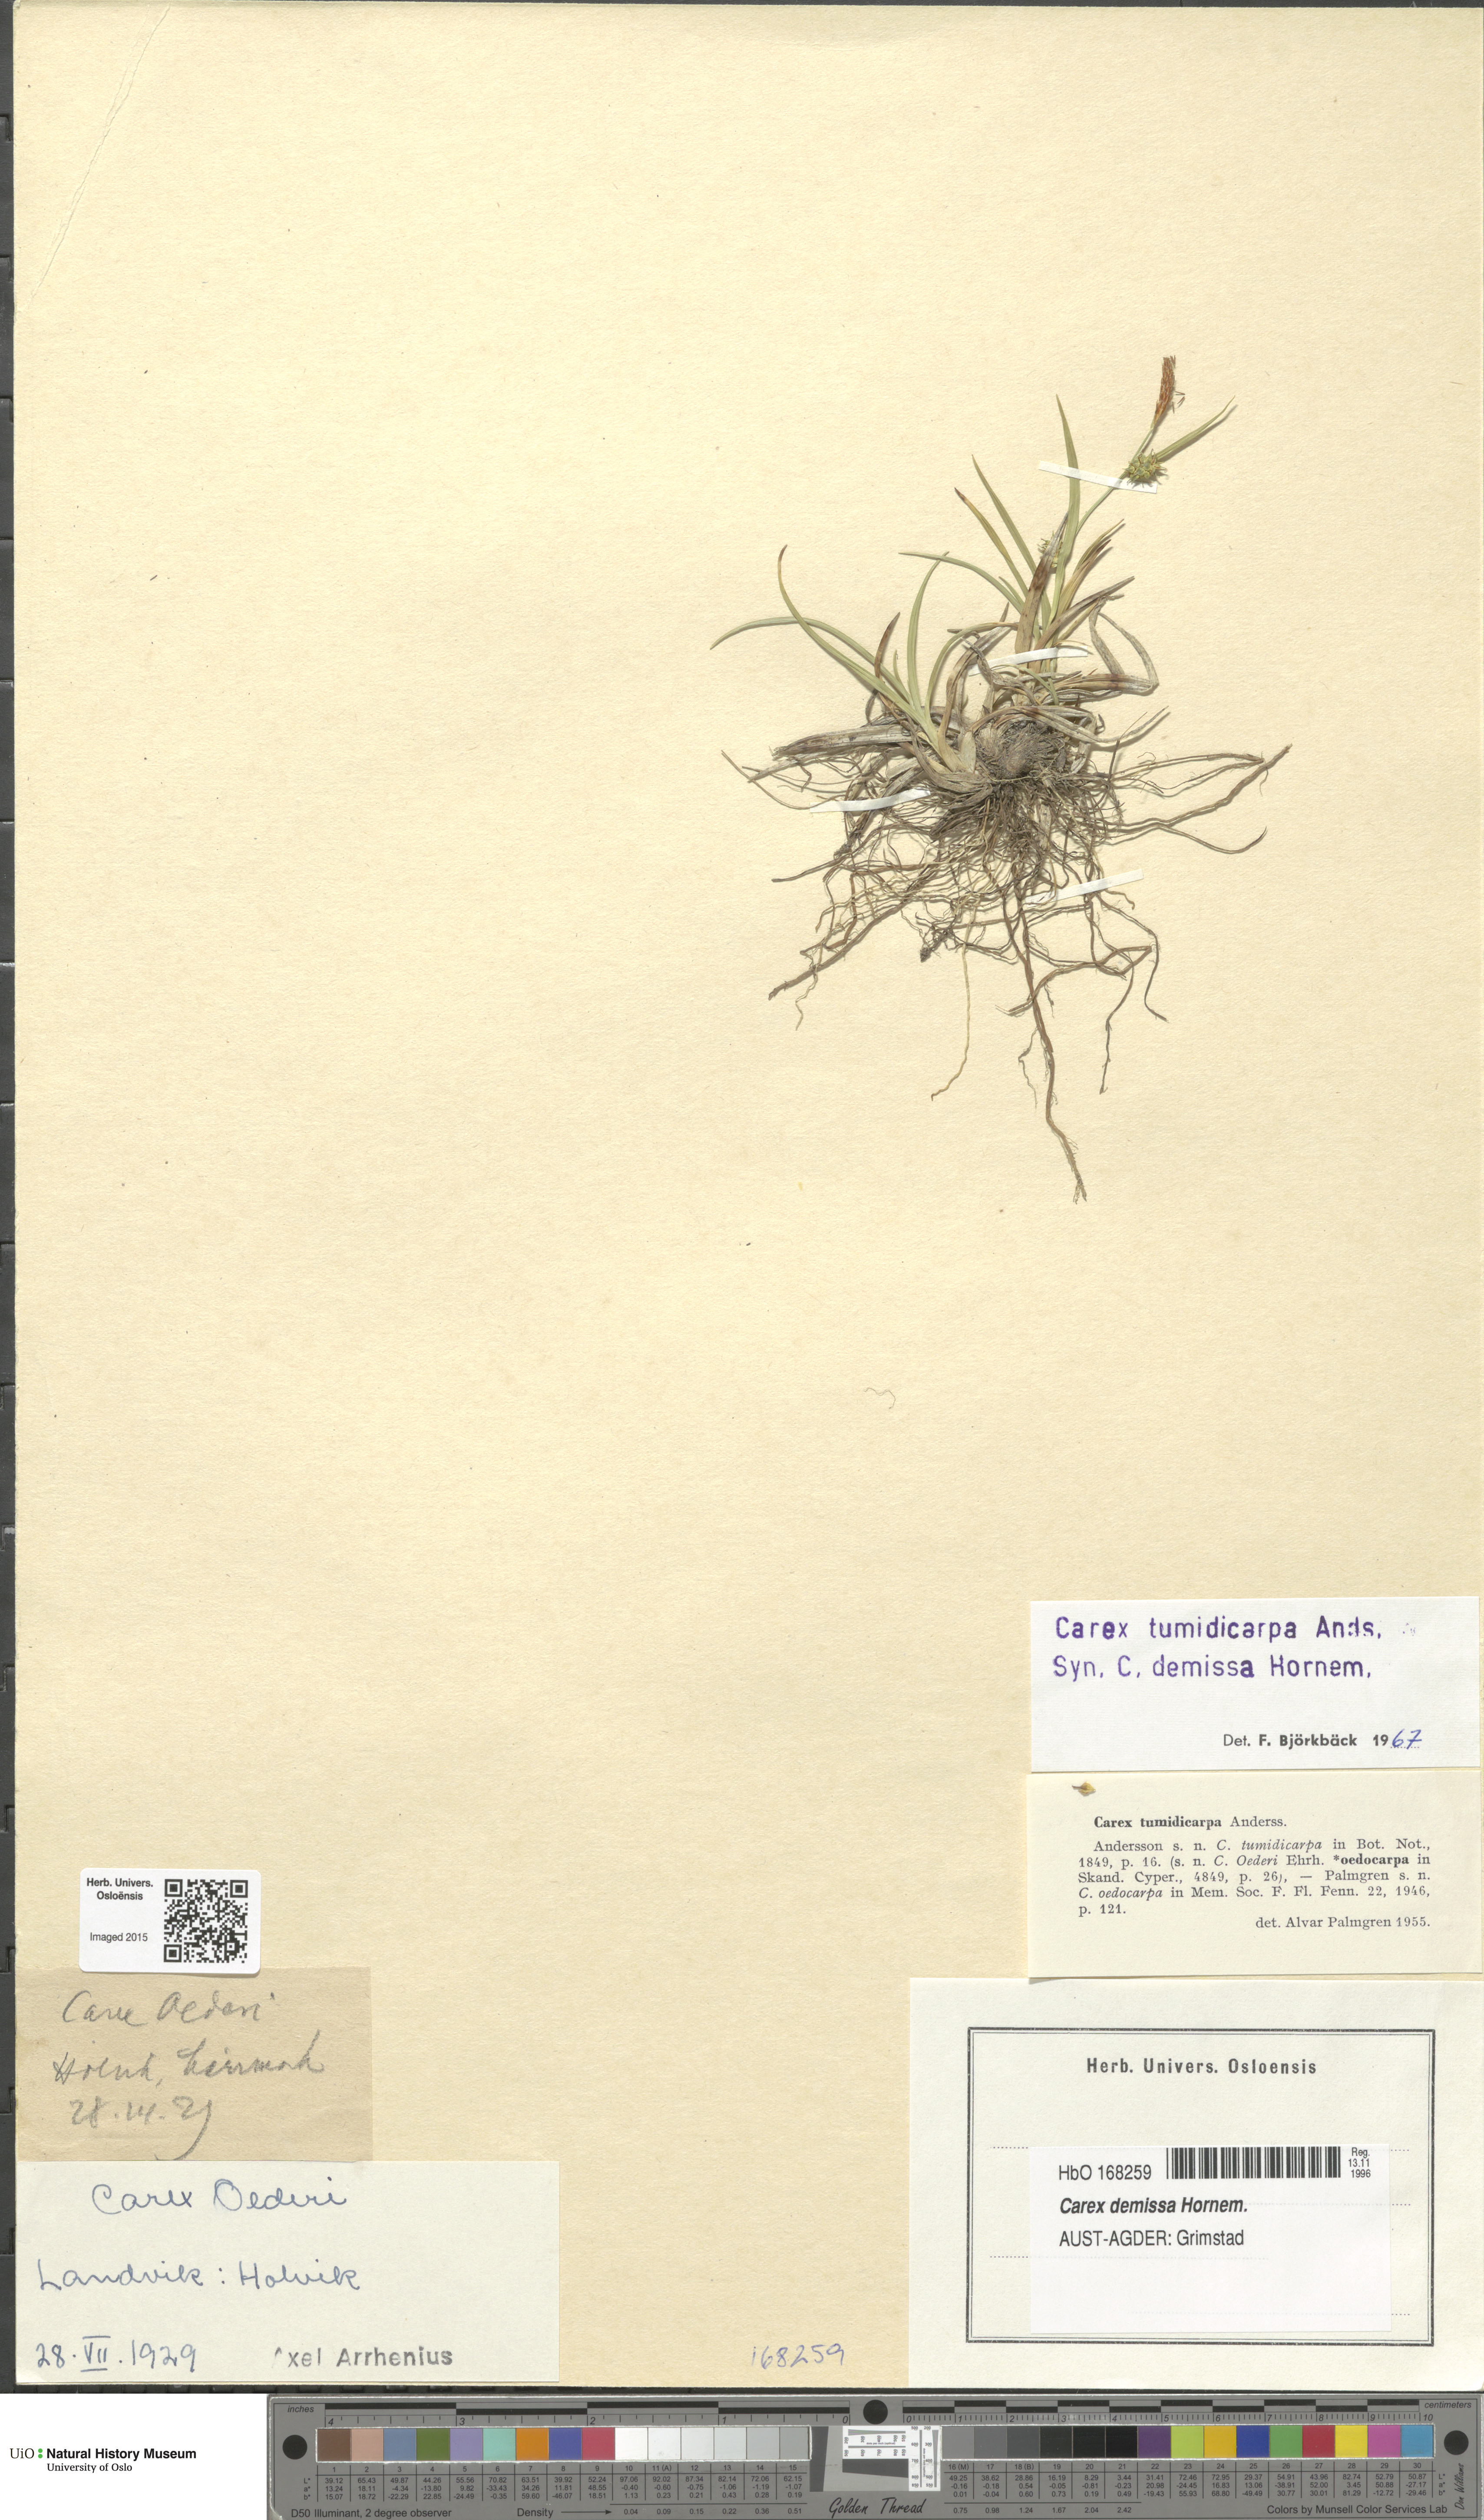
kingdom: Plantae
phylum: Tracheophyta
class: Liliopsida
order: Poales
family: Cyperaceae
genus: Carex
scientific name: Carex demissa
